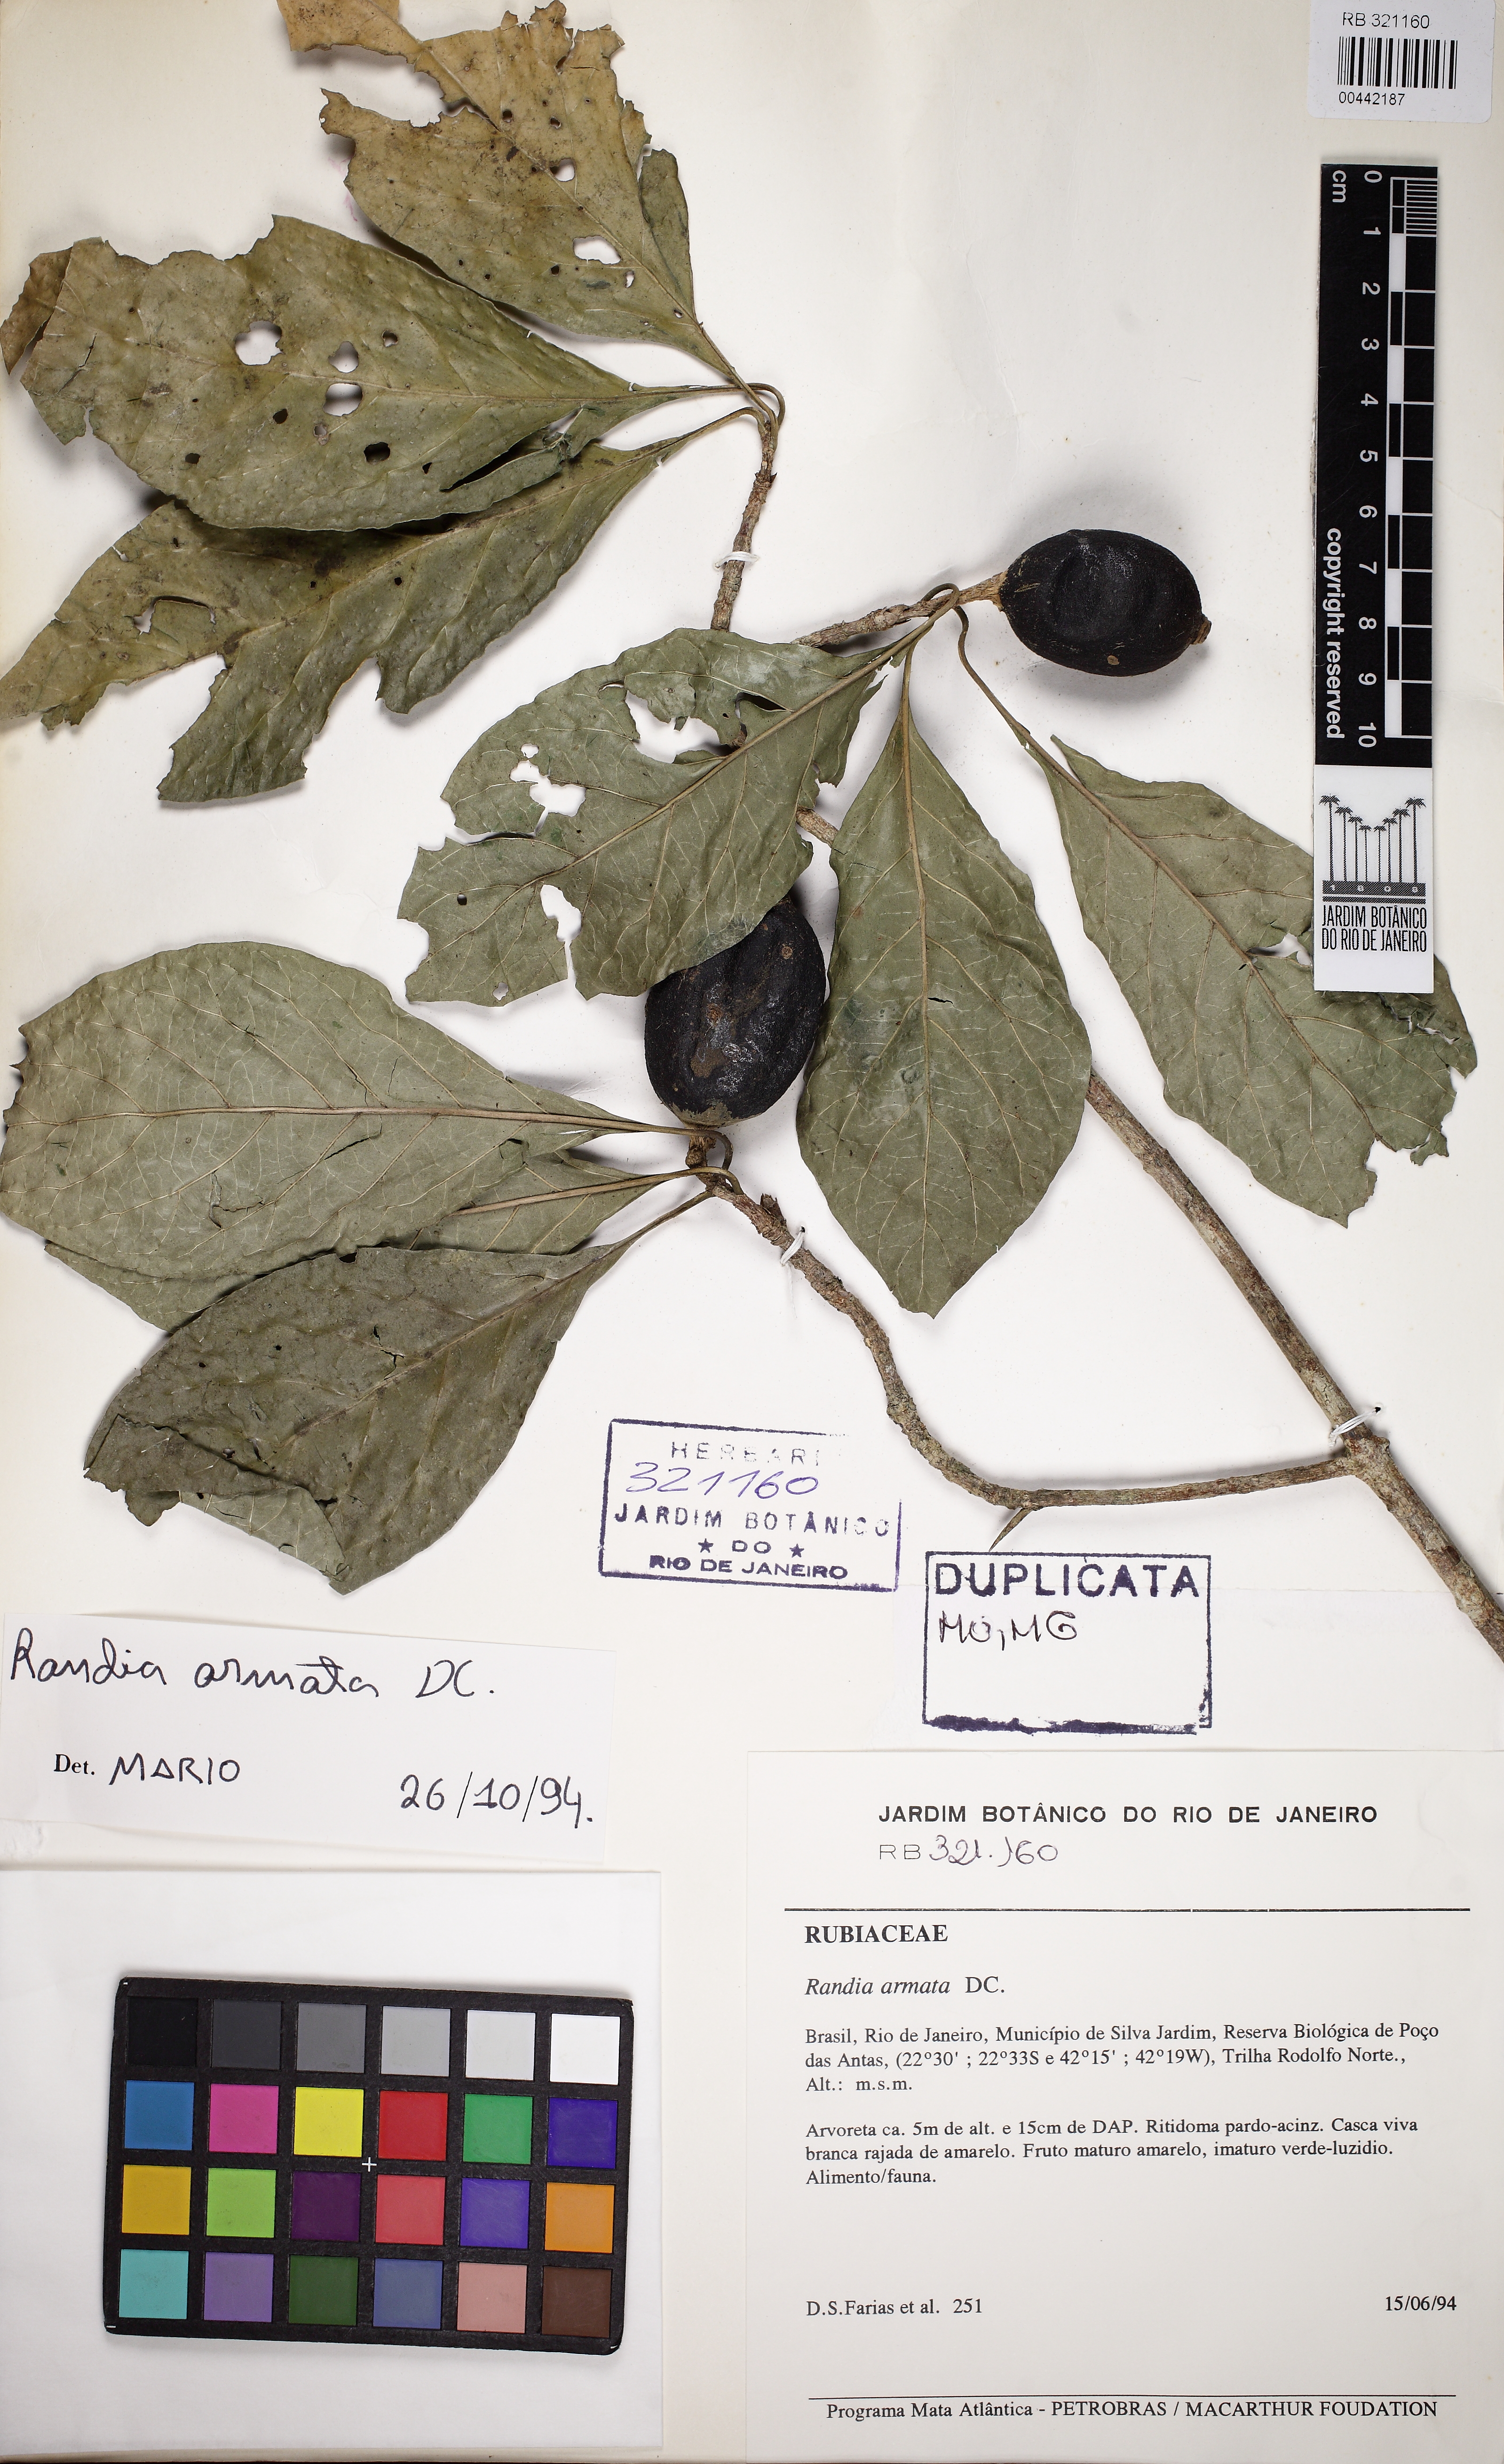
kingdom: Plantae
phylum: Tracheophyta
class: Magnoliopsida
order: Gentianales
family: Rubiaceae
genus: Randia
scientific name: Randia ferox
